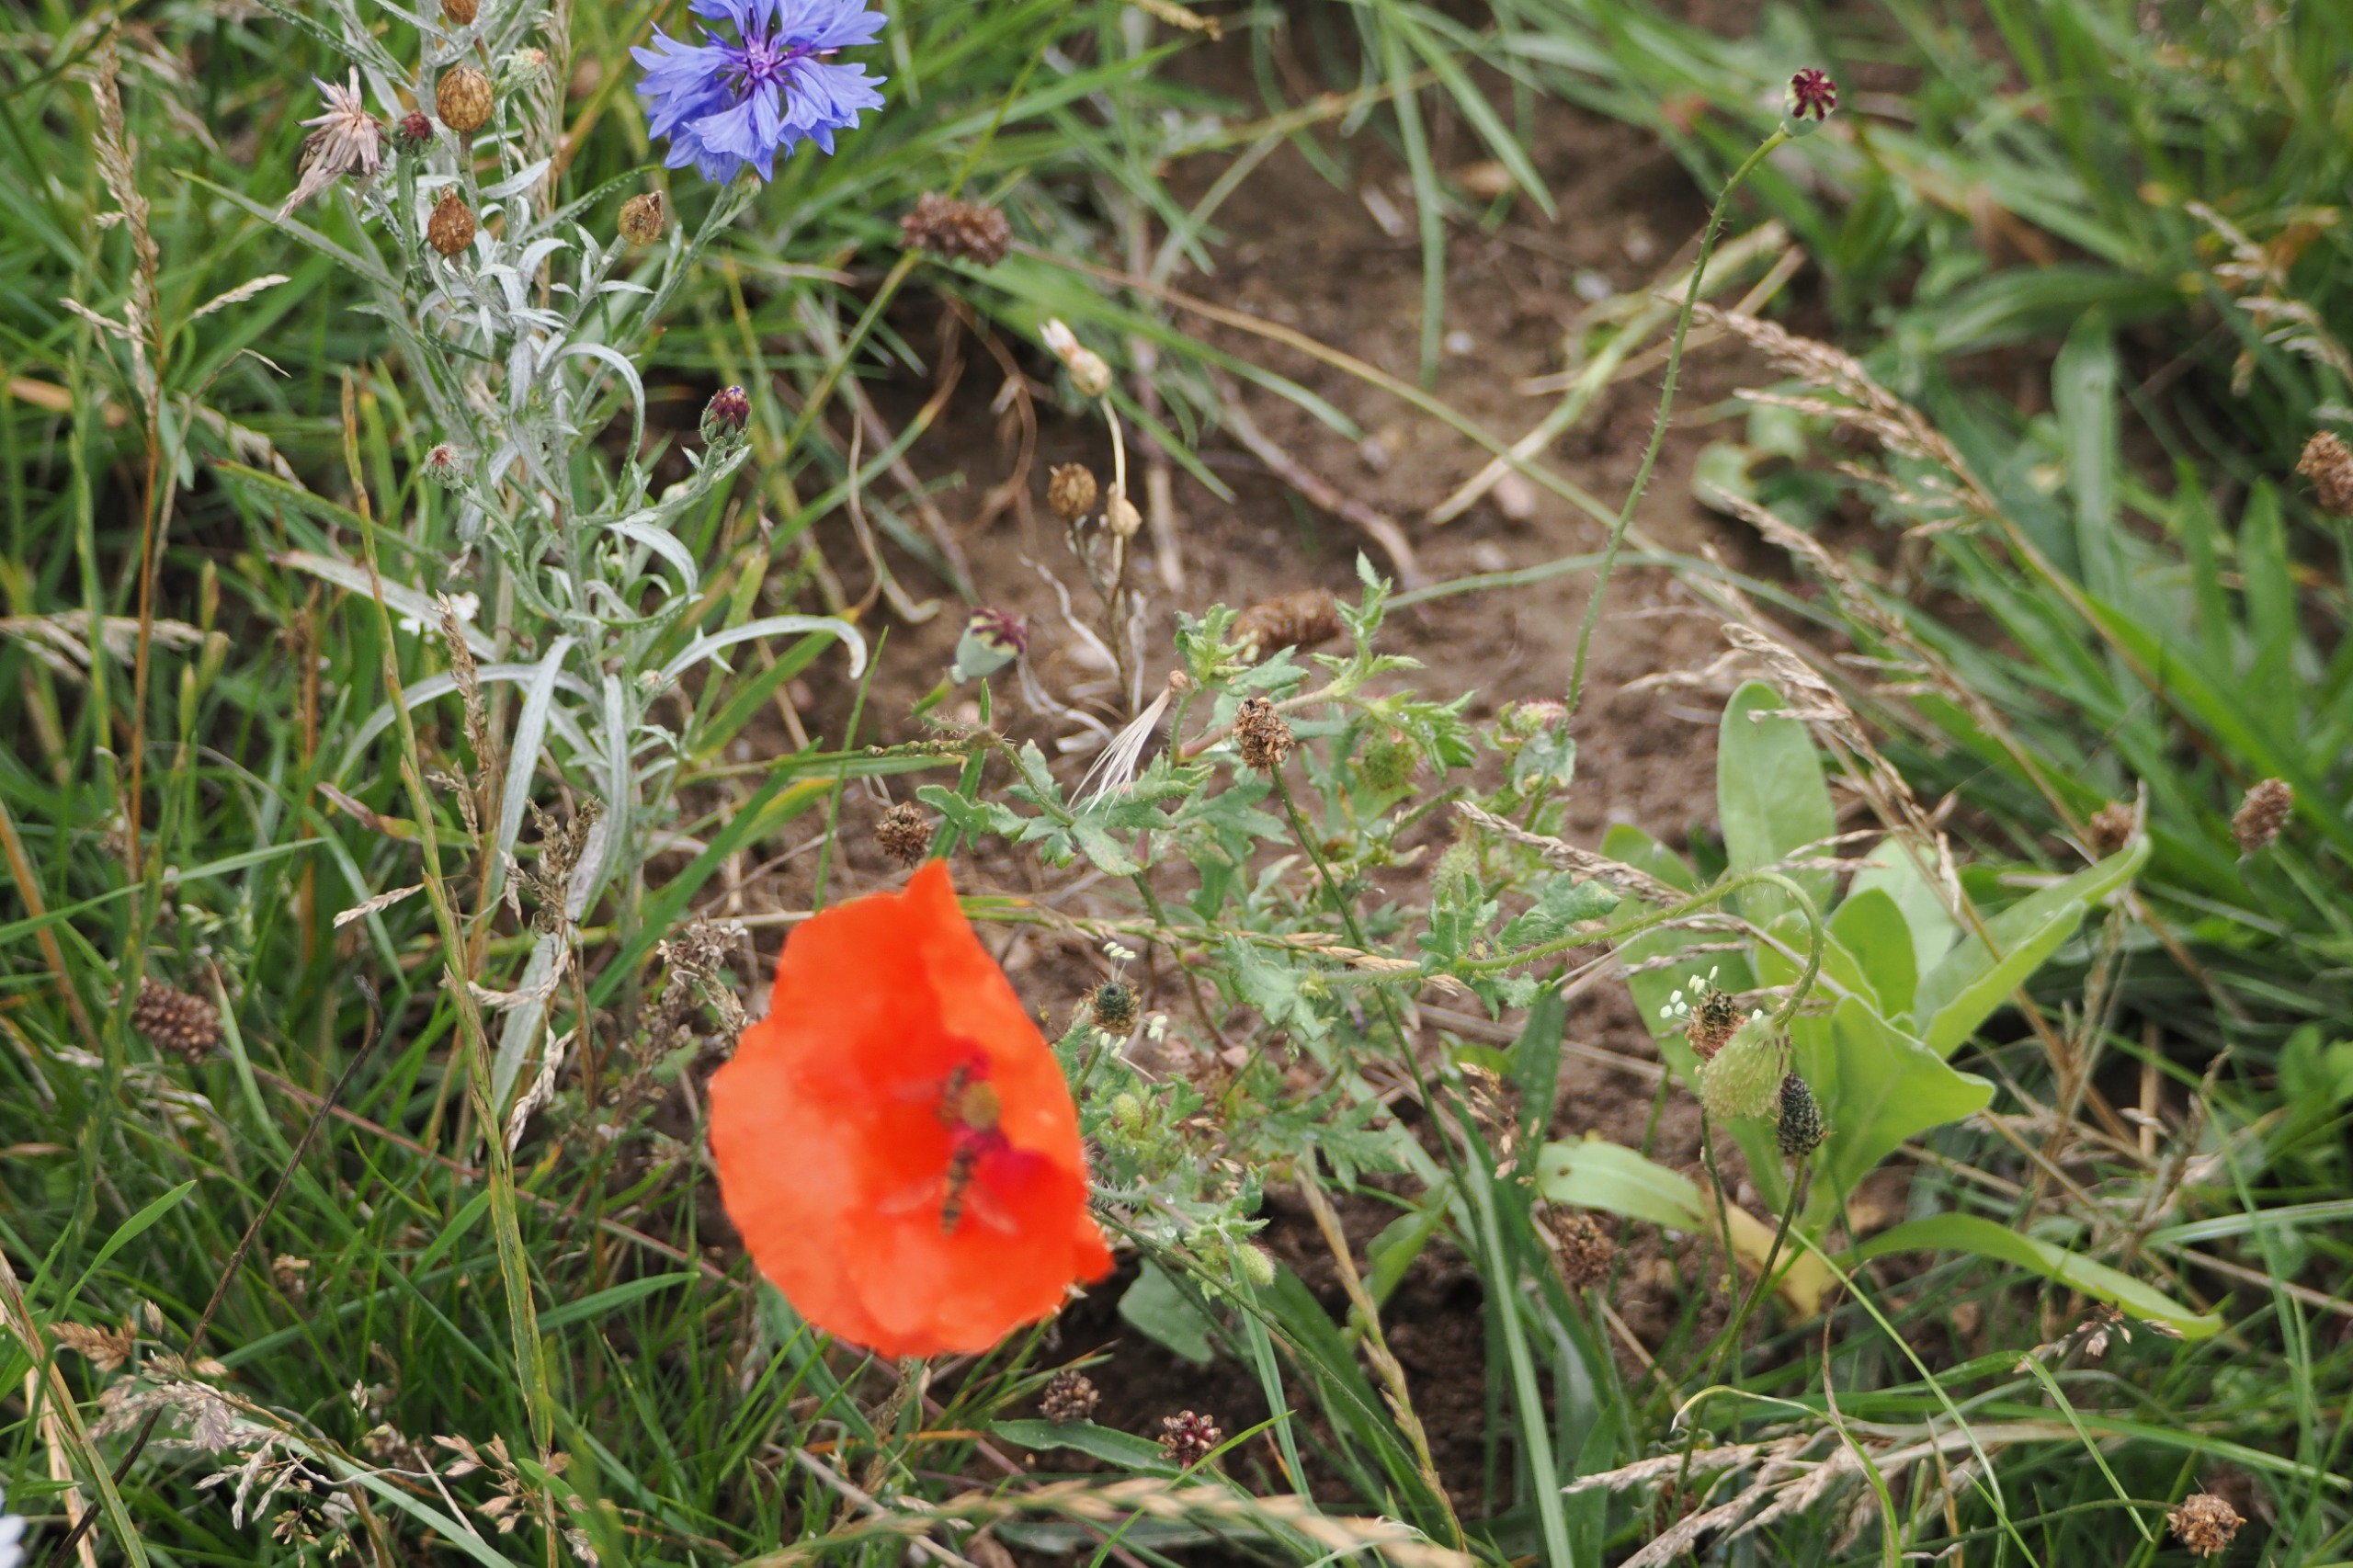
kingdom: Plantae
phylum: Tracheophyta
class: Magnoliopsida
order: Ranunculales
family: Papaveraceae
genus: Papaver
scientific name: Papaver rhoeas
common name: Korn-valmue
